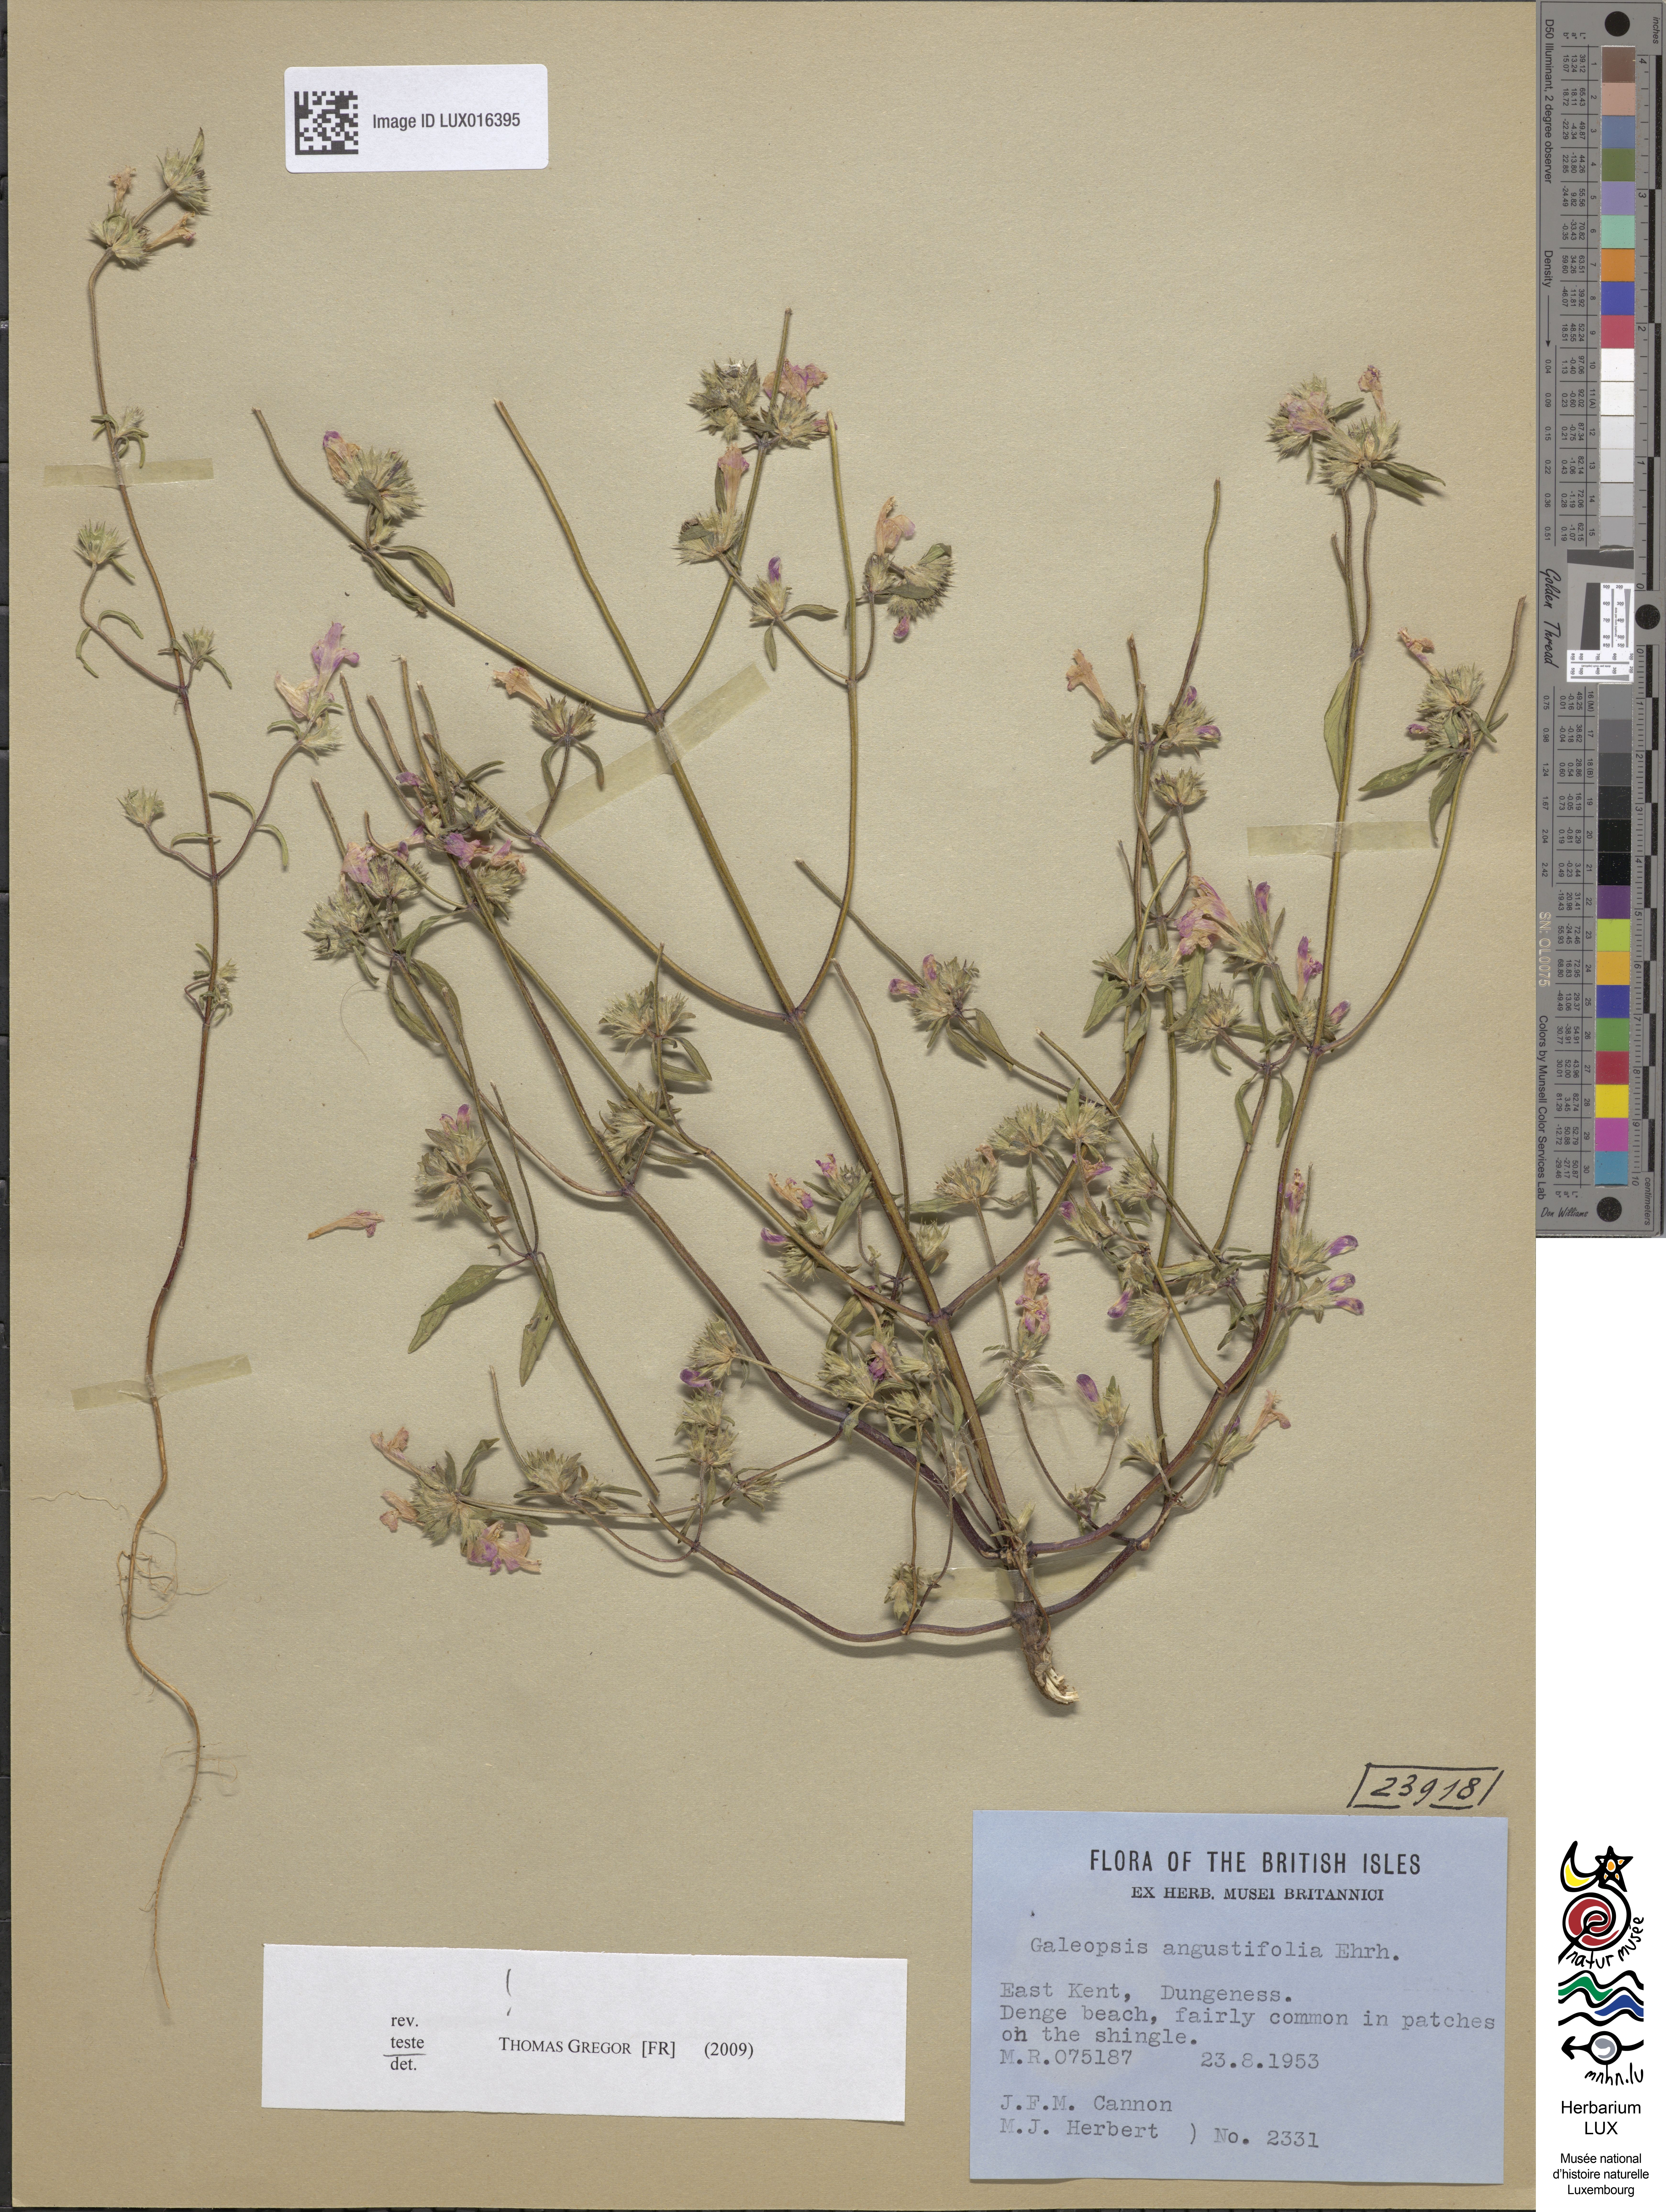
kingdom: Plantae
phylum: Tracheophyta
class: Magnoliopsida
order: Lamiales
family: Lamiaceae
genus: Galeopsis
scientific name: Galeopsis angustifolia
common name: Red hemp-nettle
